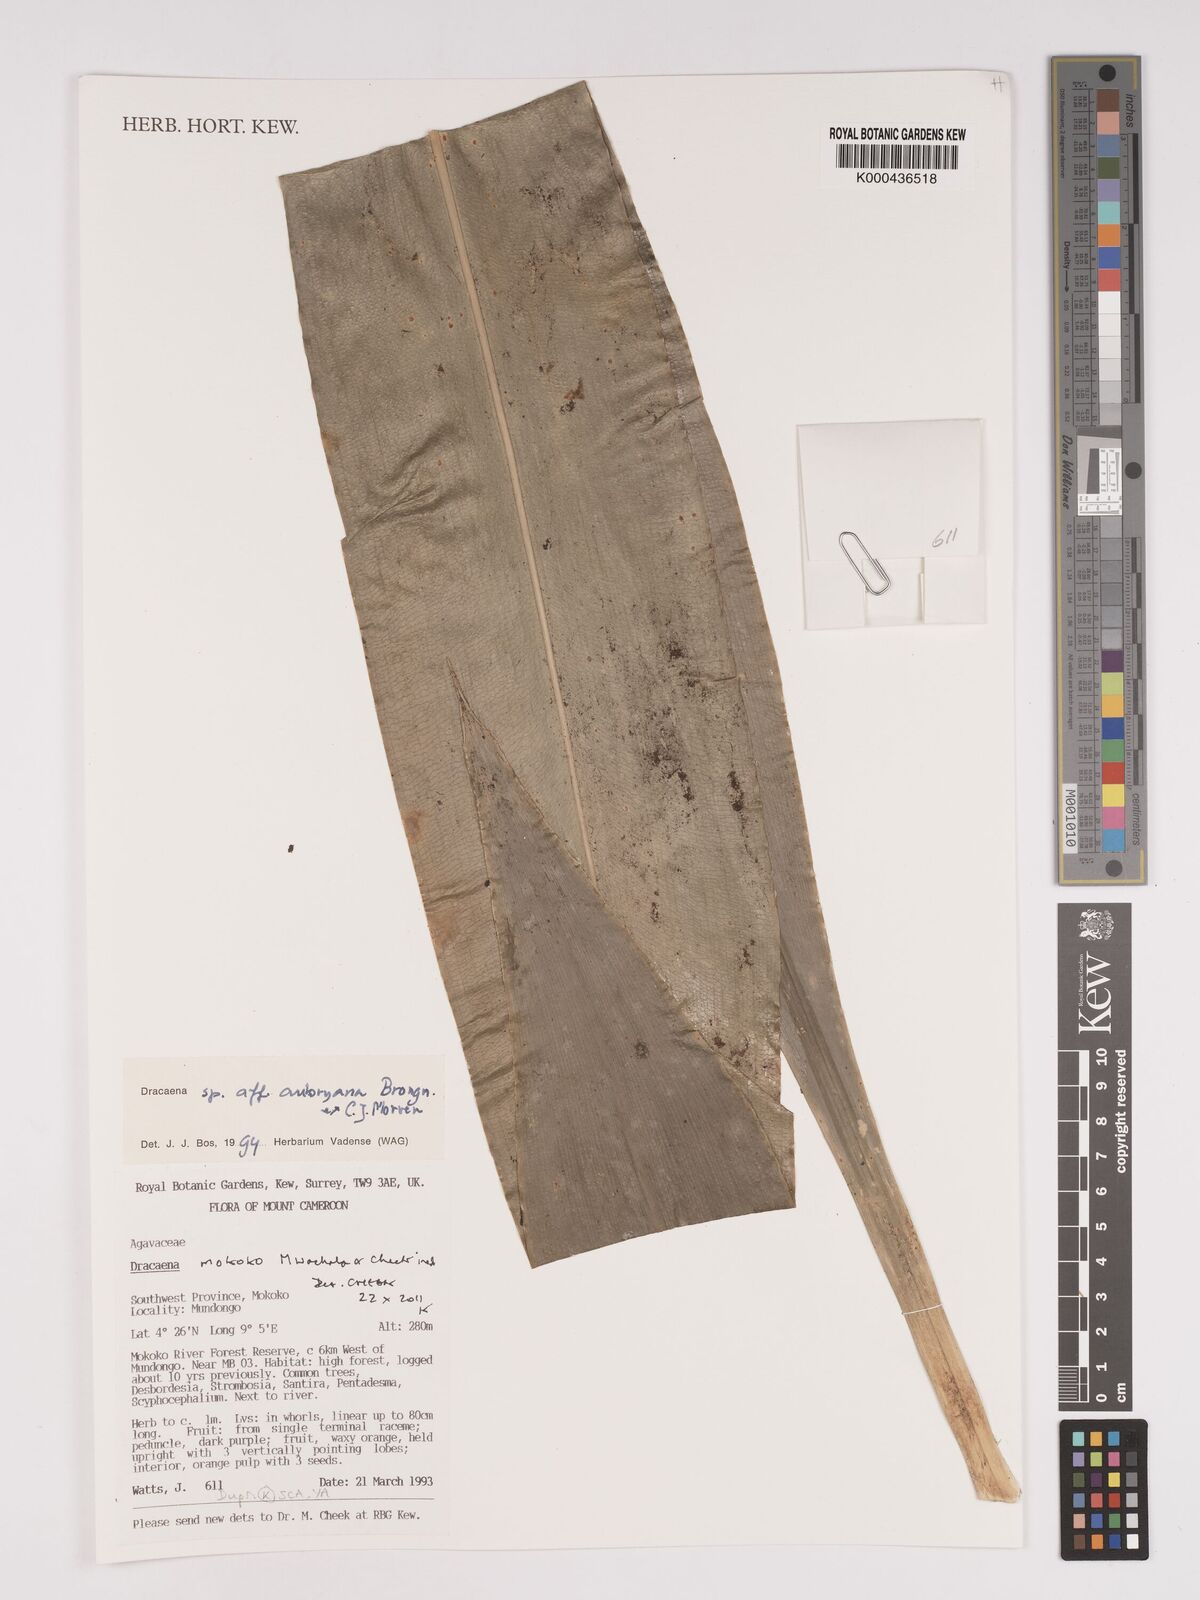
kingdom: Plantae
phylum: Tracheophyta
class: Liliopsida
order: Asparagales
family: Asparagaceae
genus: Dracaena
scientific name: Dracaena mokoko
